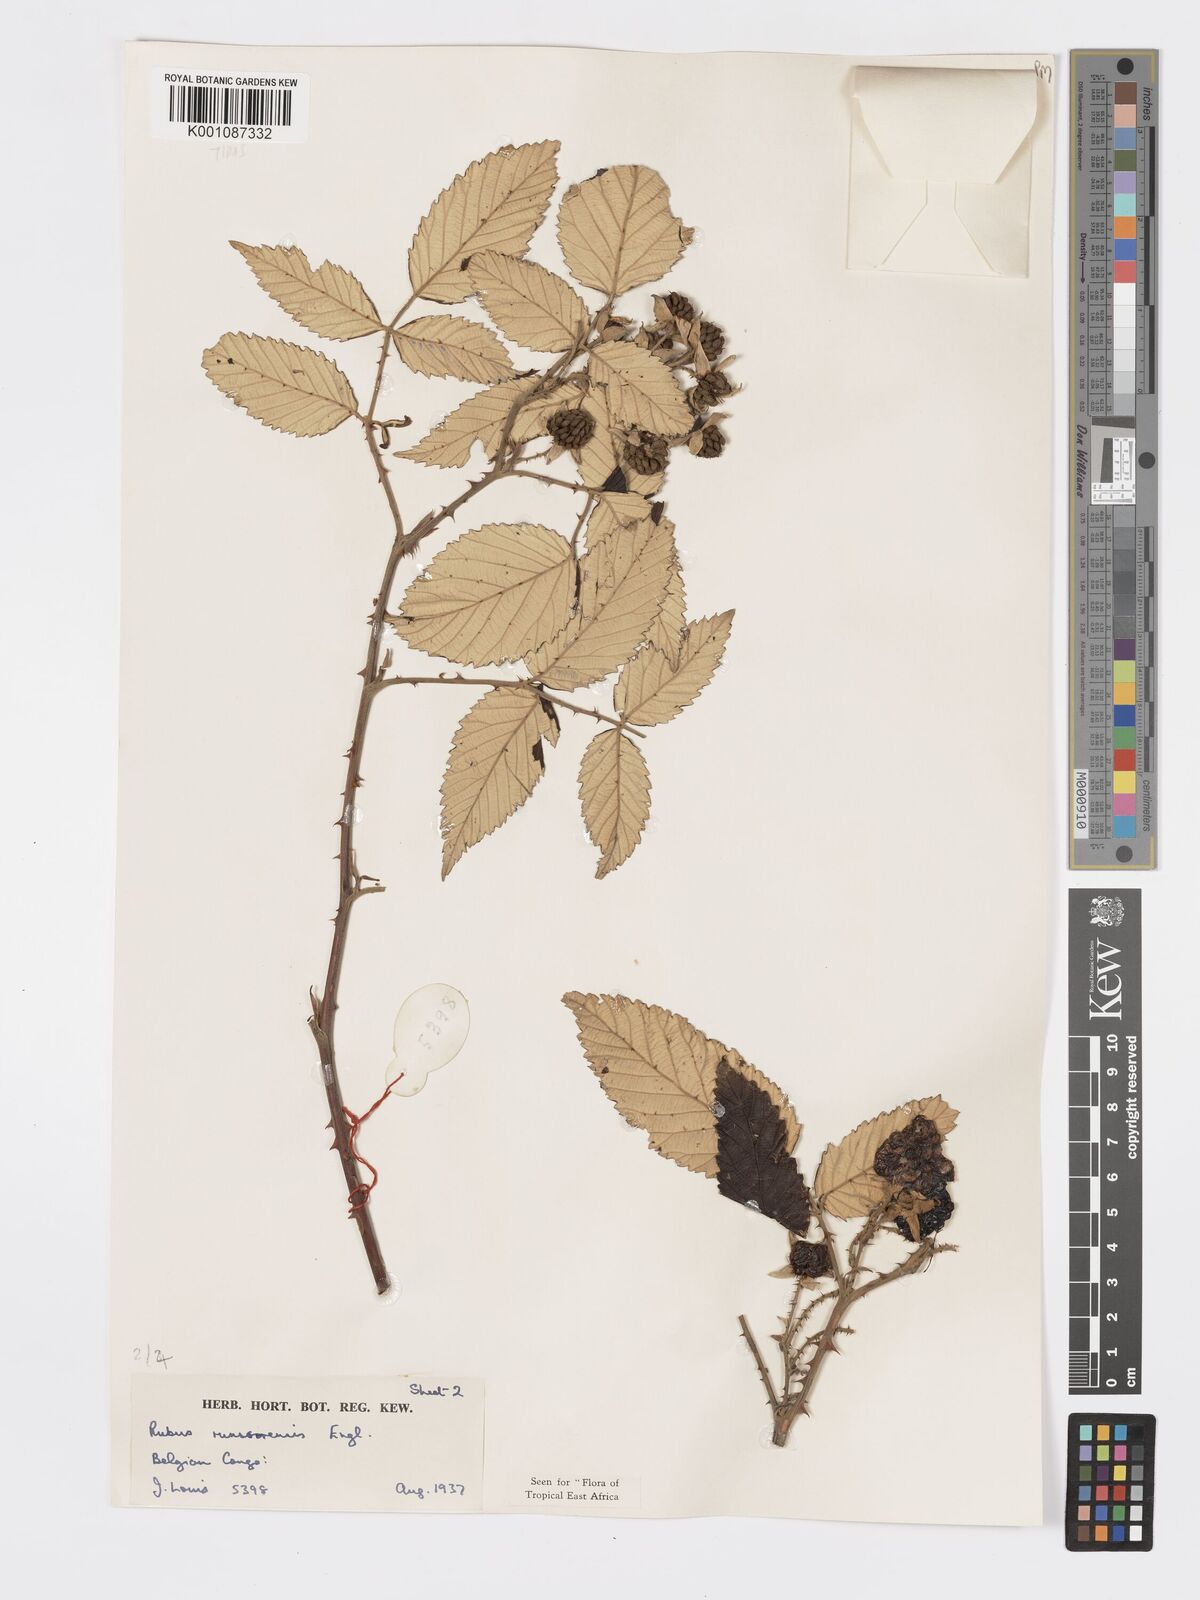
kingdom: Plantae
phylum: Tracheophyta
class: Magnoliopsida
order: Rosales
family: Rosaceae
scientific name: Rosaceae
